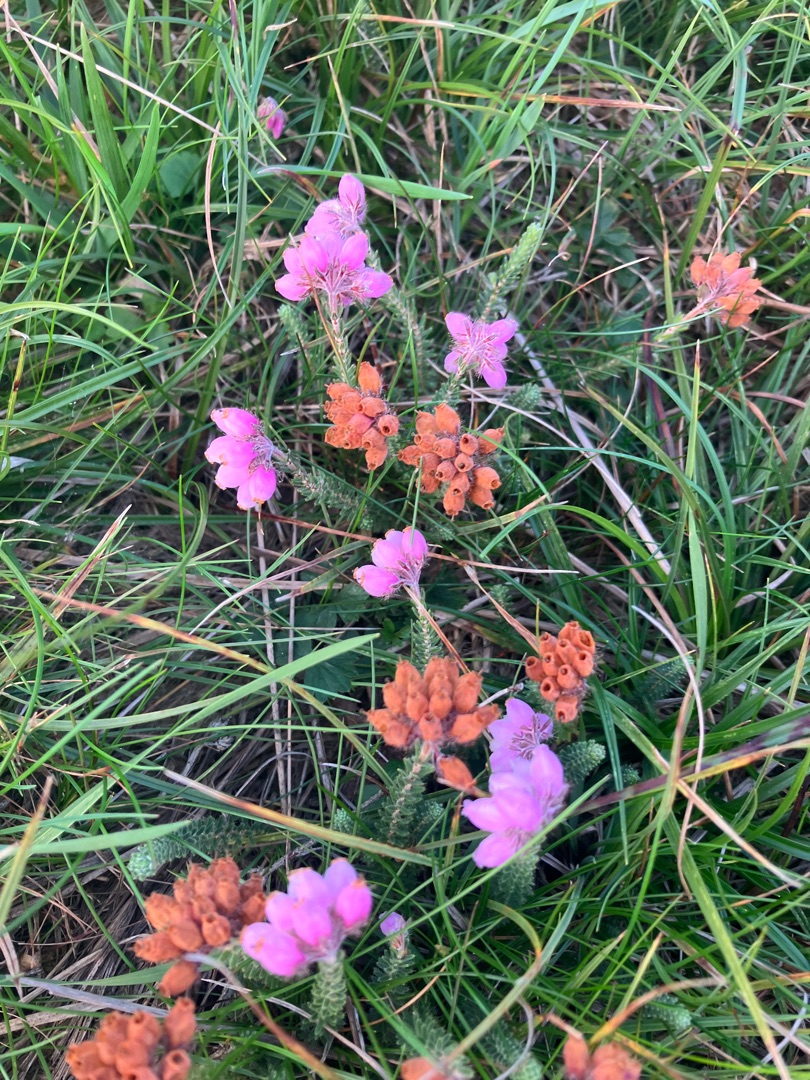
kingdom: Plantae
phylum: Tracheophyta
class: Magnoliopsida
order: Ericales
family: Ericaceae
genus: Erica
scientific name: Erica tetralix
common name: Klokkelyng
